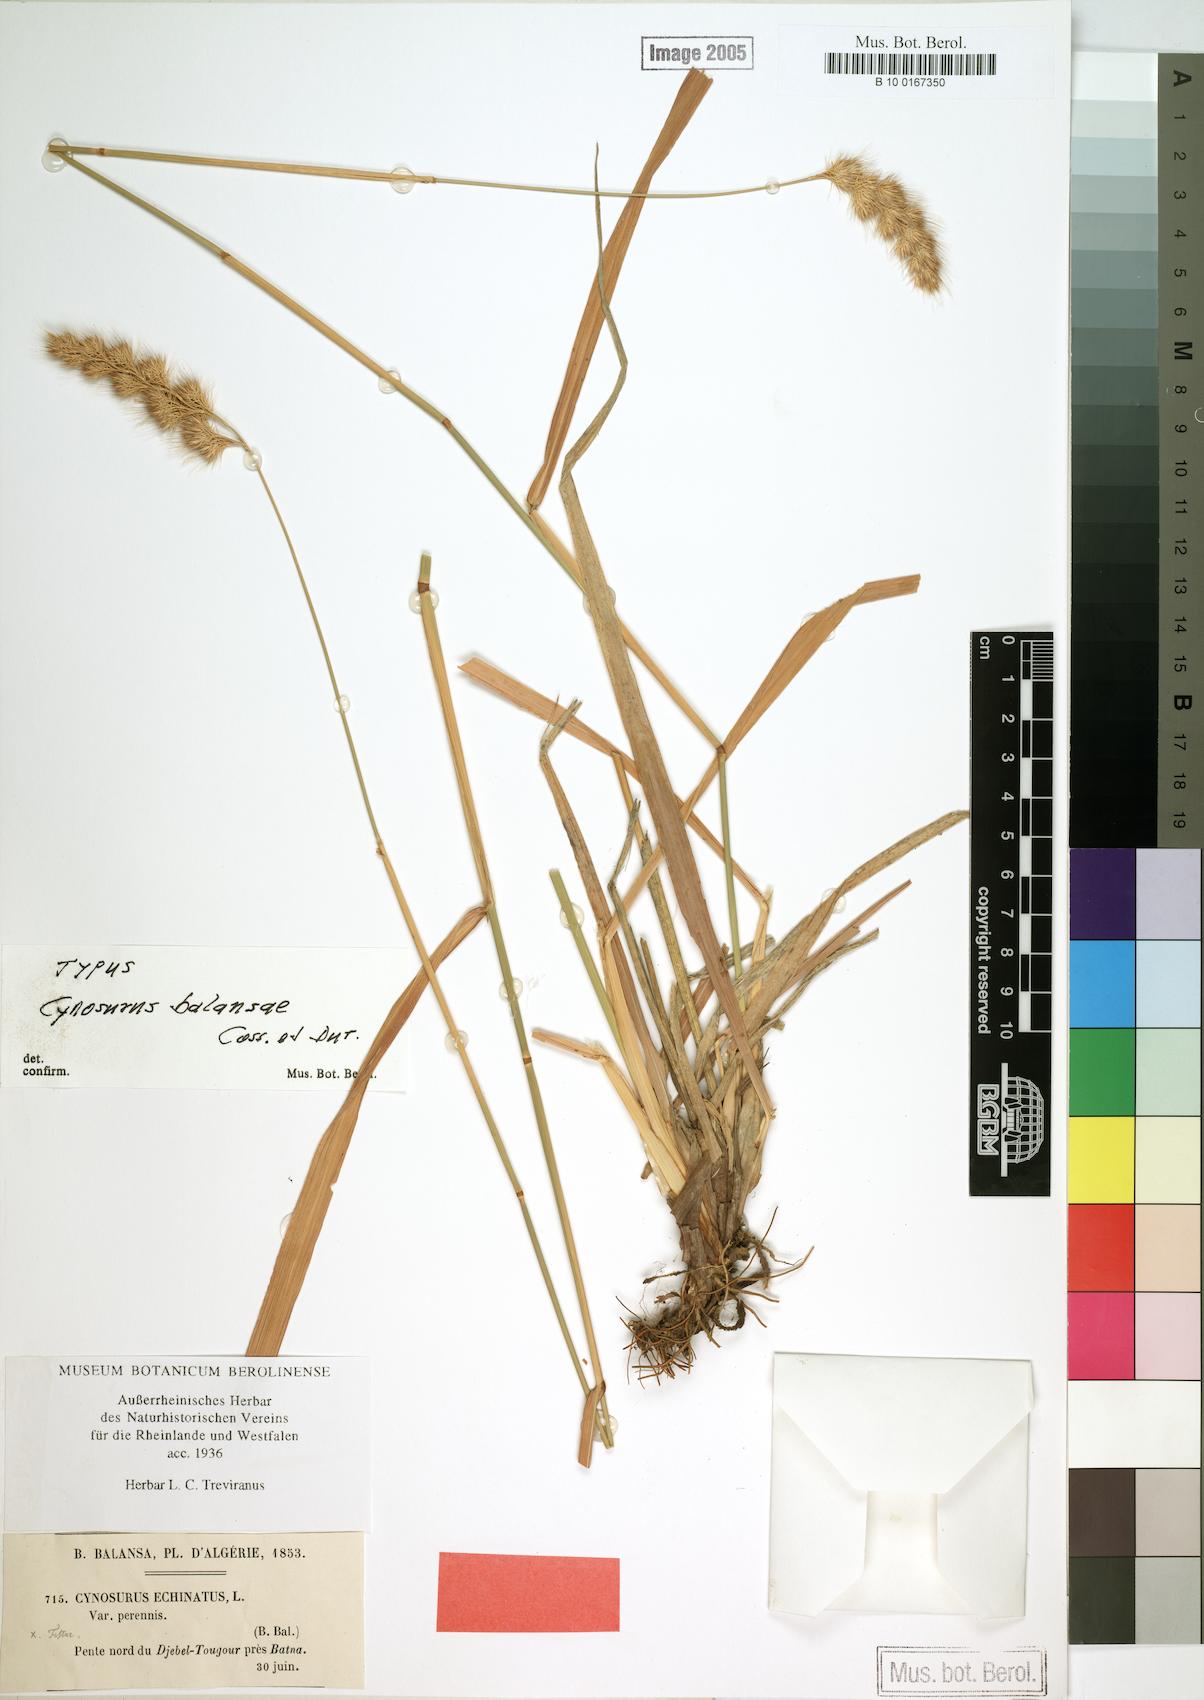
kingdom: Plantae
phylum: Tracheophyta
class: Liliopsida
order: Poales
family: Poaceae
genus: Cynosurus
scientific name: Cynosurus balansae
